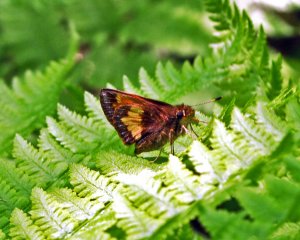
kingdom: Animalia
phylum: Arthropoda
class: Insecta
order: Lepidoptera
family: Hesperiidae
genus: Lon
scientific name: Lon hobomok
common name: Hobomok Skipper
